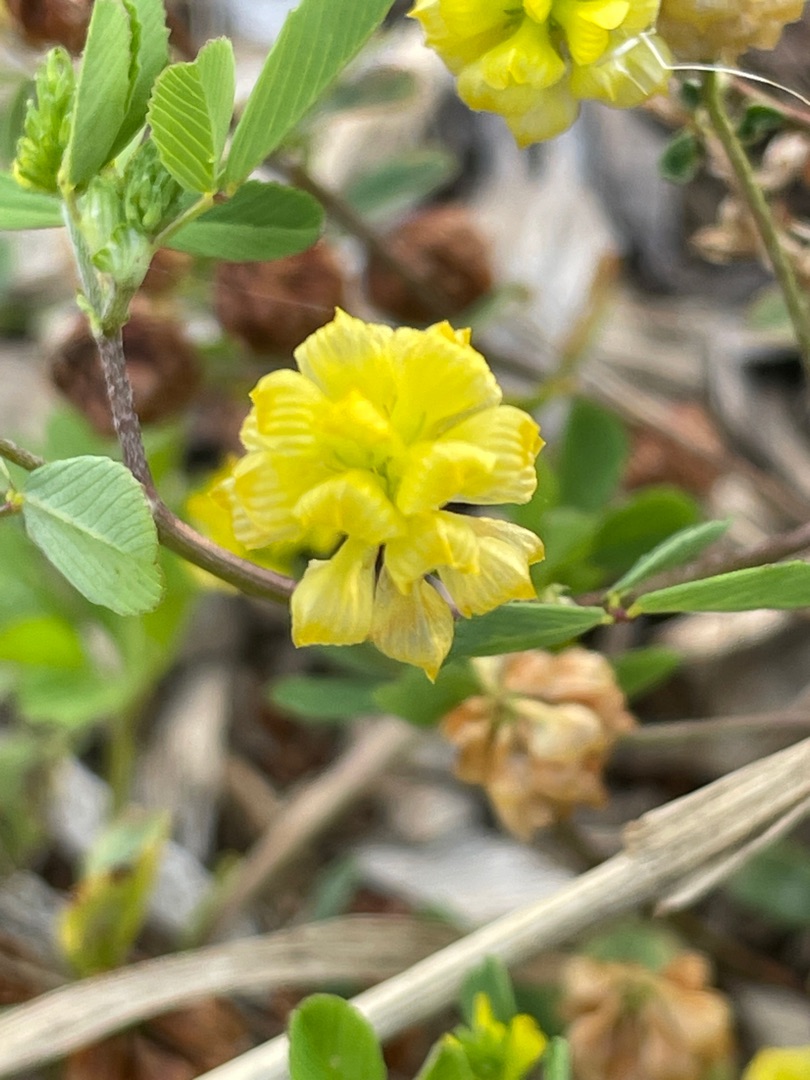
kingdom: Plantae
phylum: Tracheophyta
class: Magnoliopsida
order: Fabales
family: Fabaceae
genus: Trifolium
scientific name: Trifolium campestre
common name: Gul kløver
